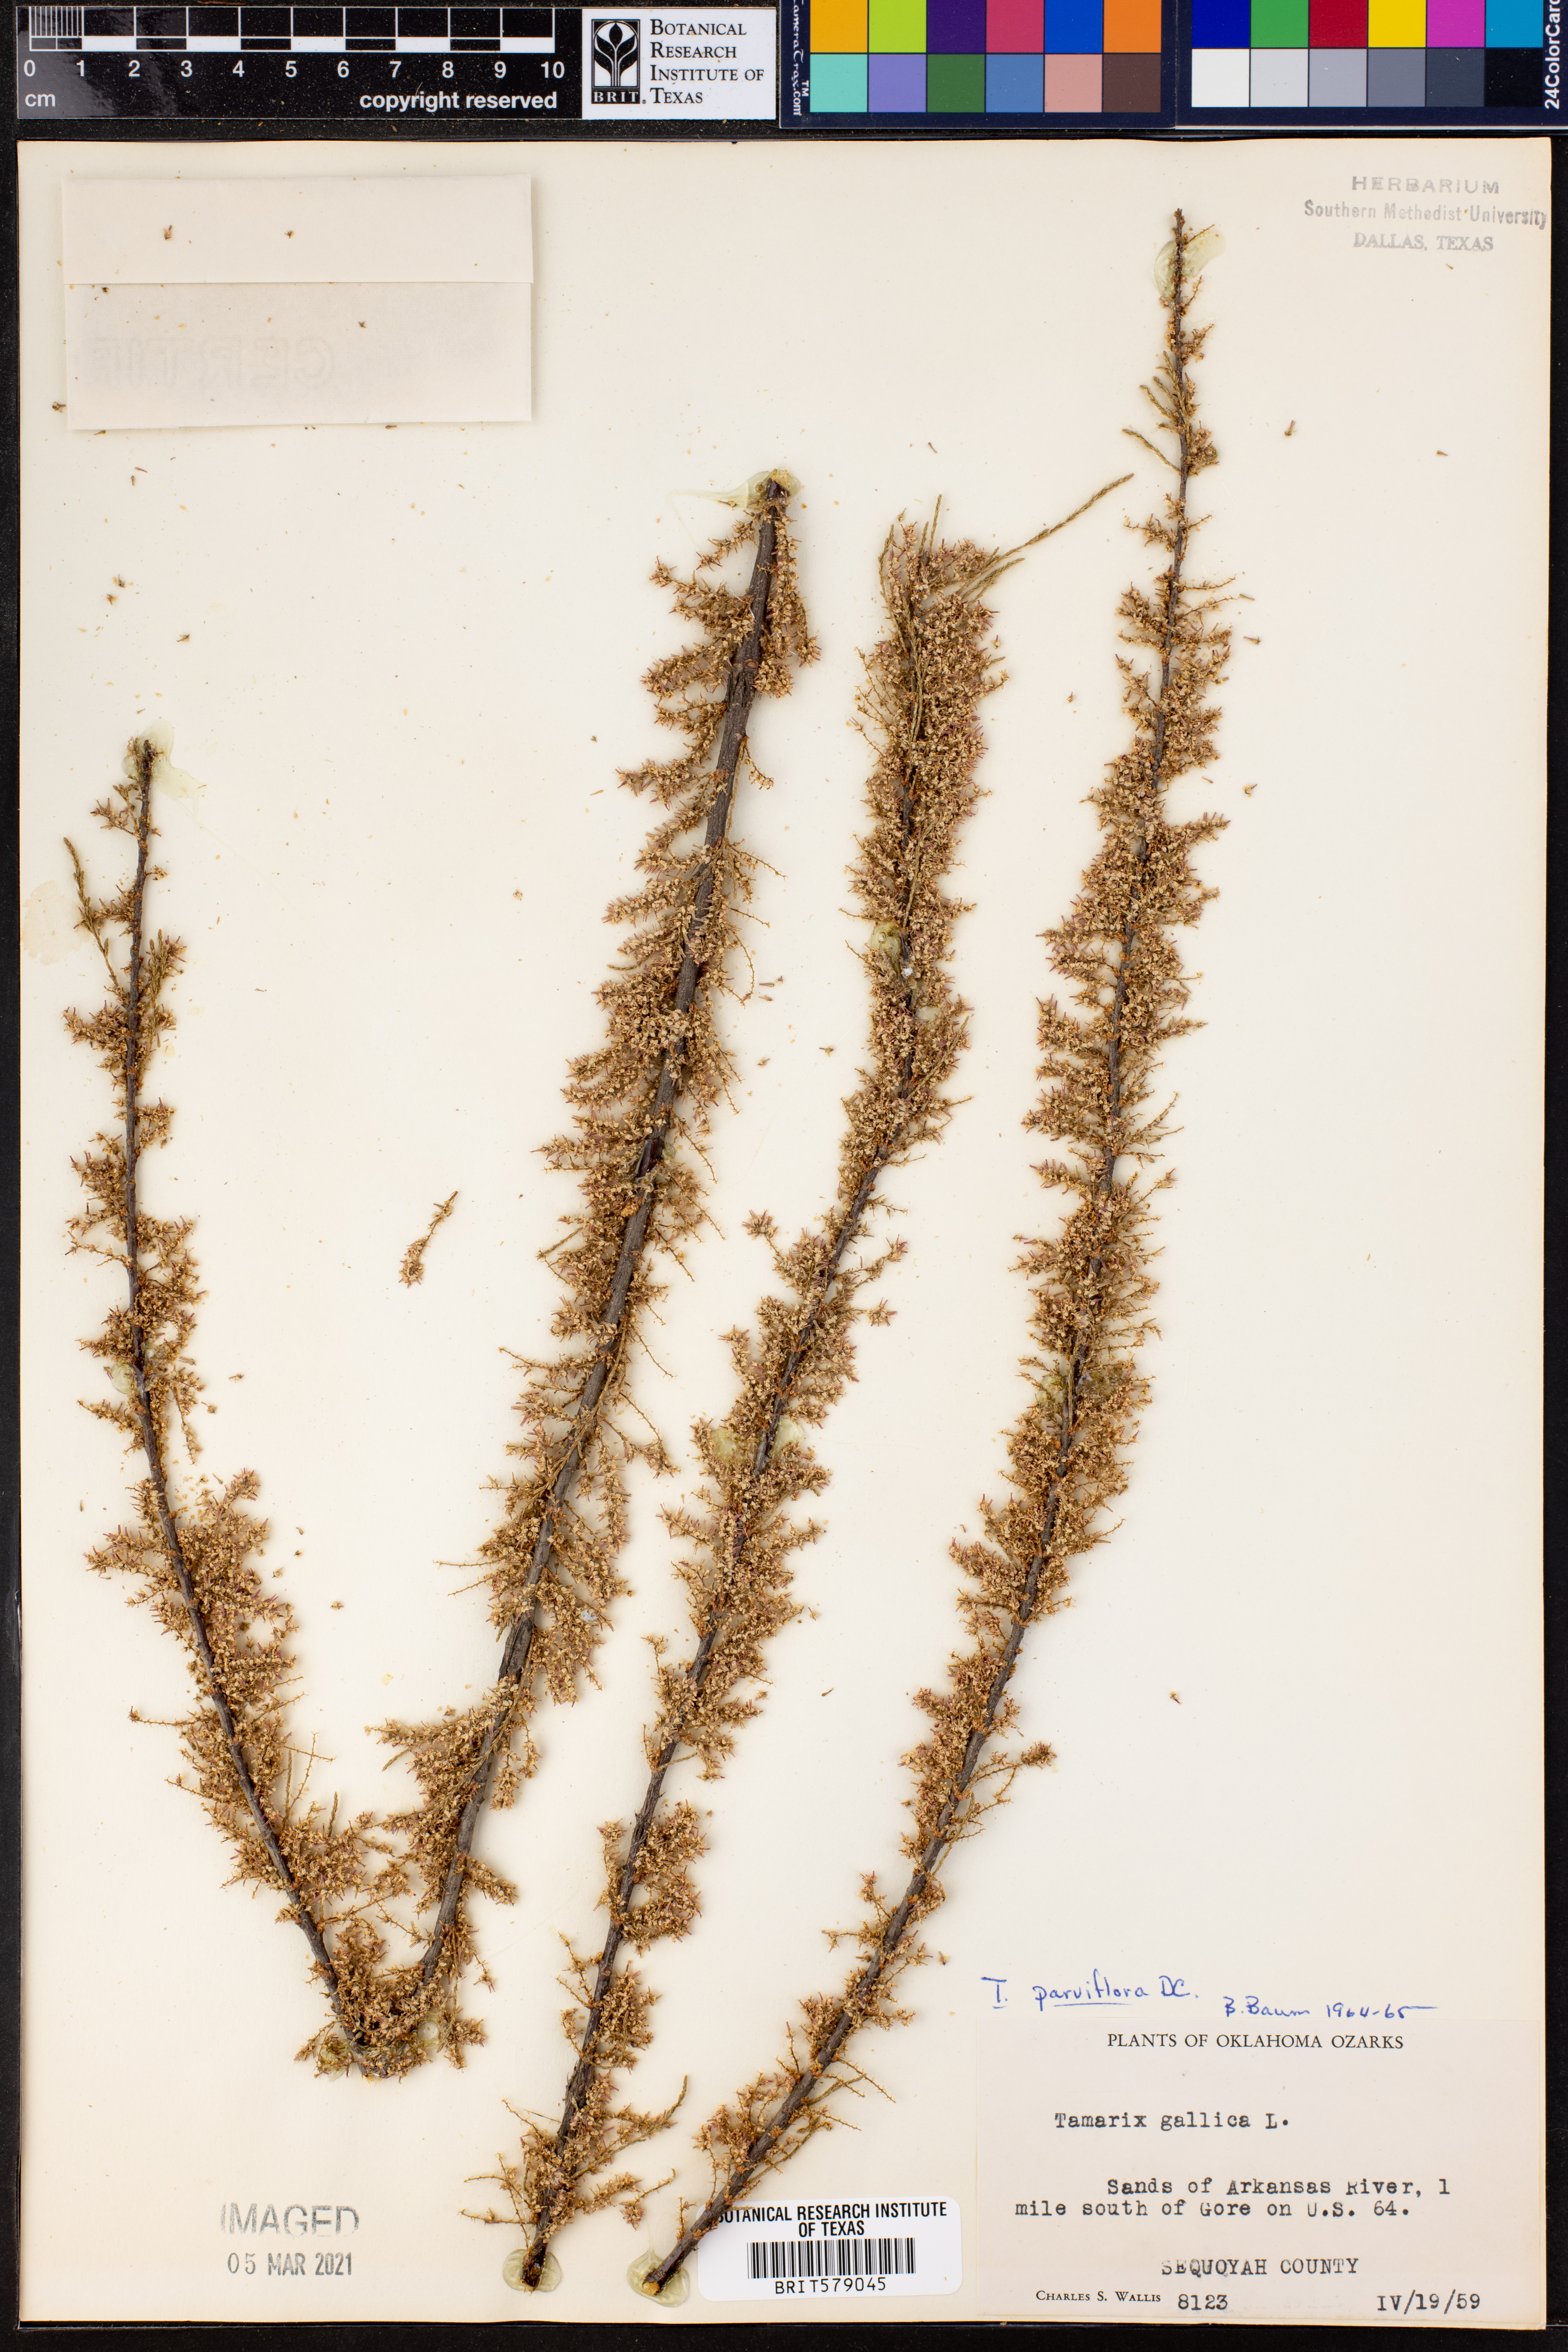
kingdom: Plantae
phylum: Tracheophyta
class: Magnoliopsida
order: Caryophyllales
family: Tamaricaceae
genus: Tamarix
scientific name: Tamarix parviflora
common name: Smallflower tamarisk
